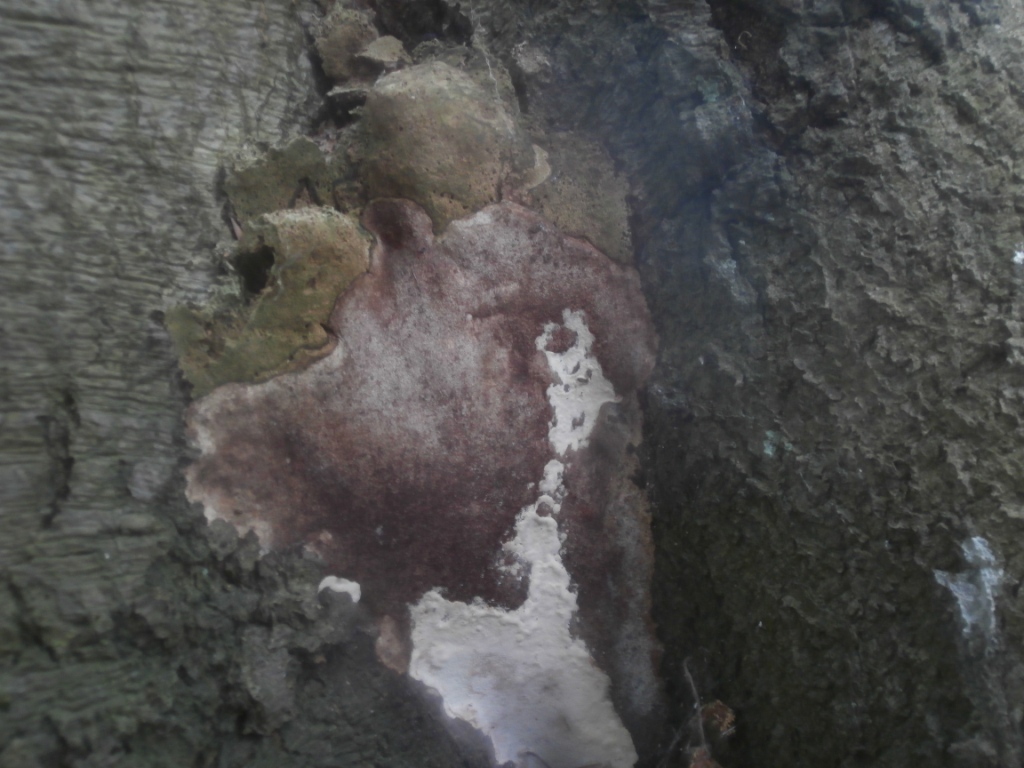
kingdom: Fungi
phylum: Basidiomycota
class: Agaricomycetes
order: Polyporales
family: Polyporaceae
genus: Vanderbylia
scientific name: Vanderbylia fraxinea
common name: stor kanelporesvamp
